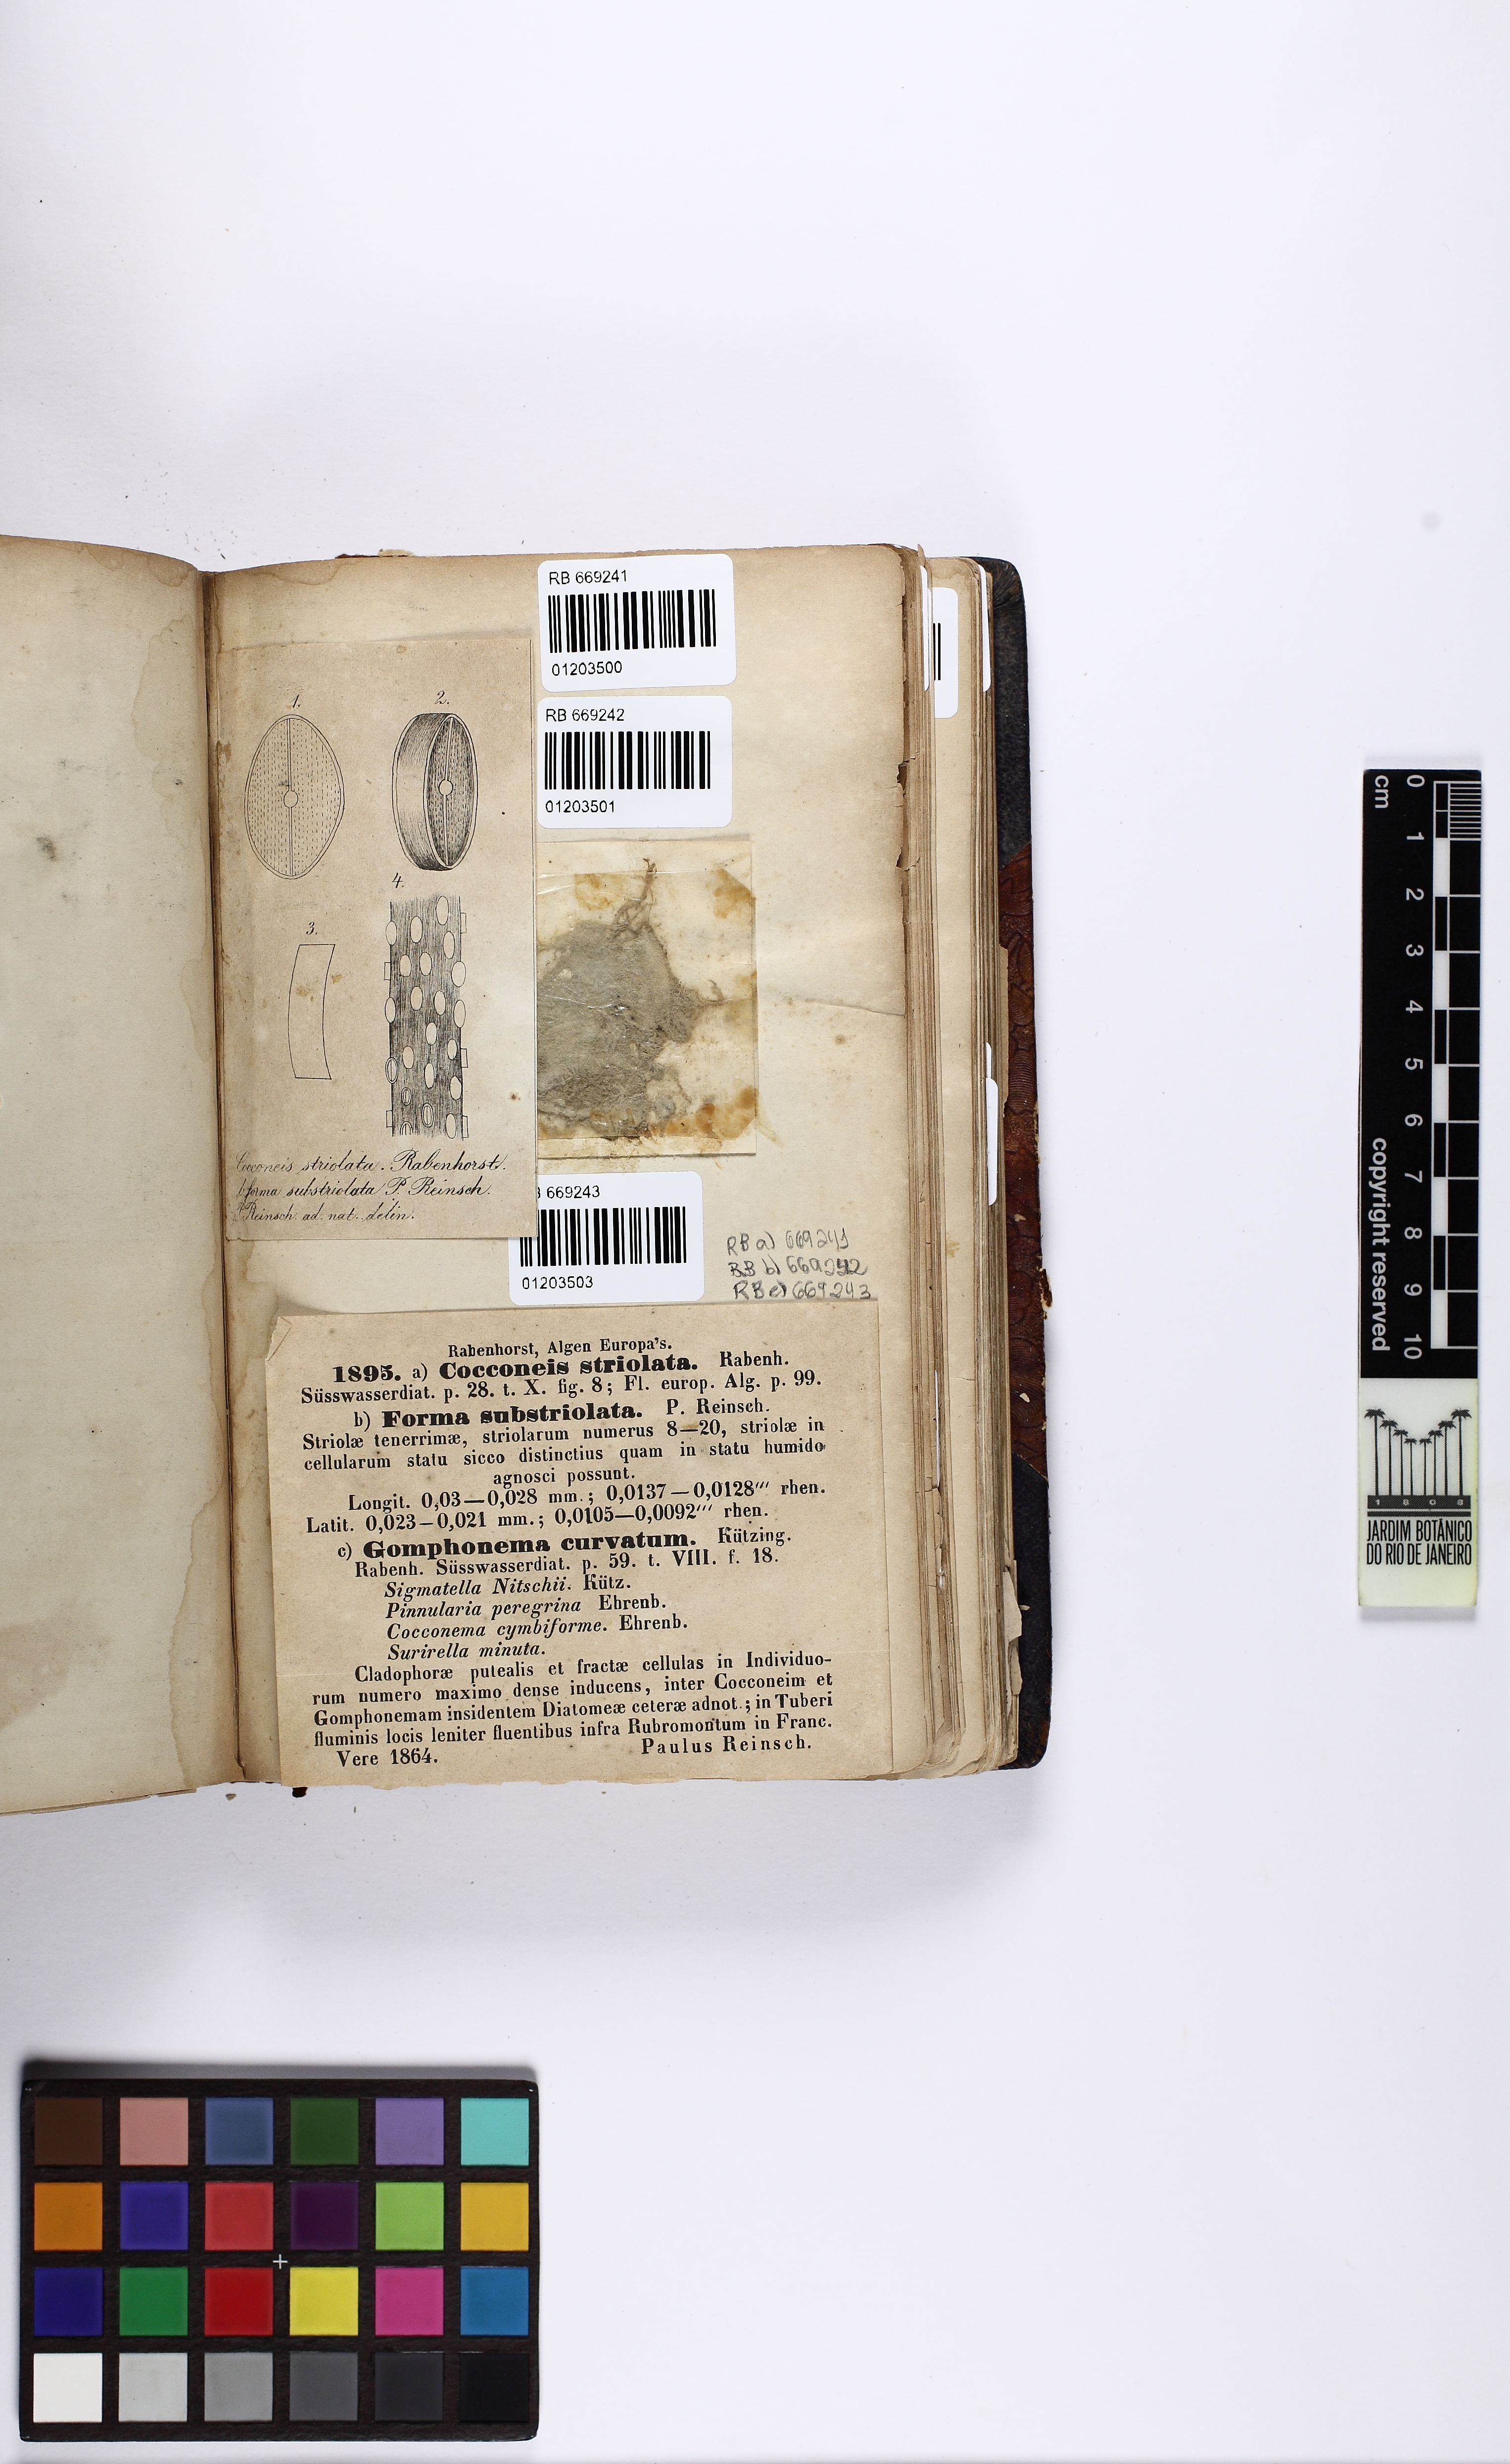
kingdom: Chromista
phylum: Ochrophyta
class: Bacillariophyceae
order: Cymbellales
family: Gomphonemataceae
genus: Gomphonema
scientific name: Gomphonema
